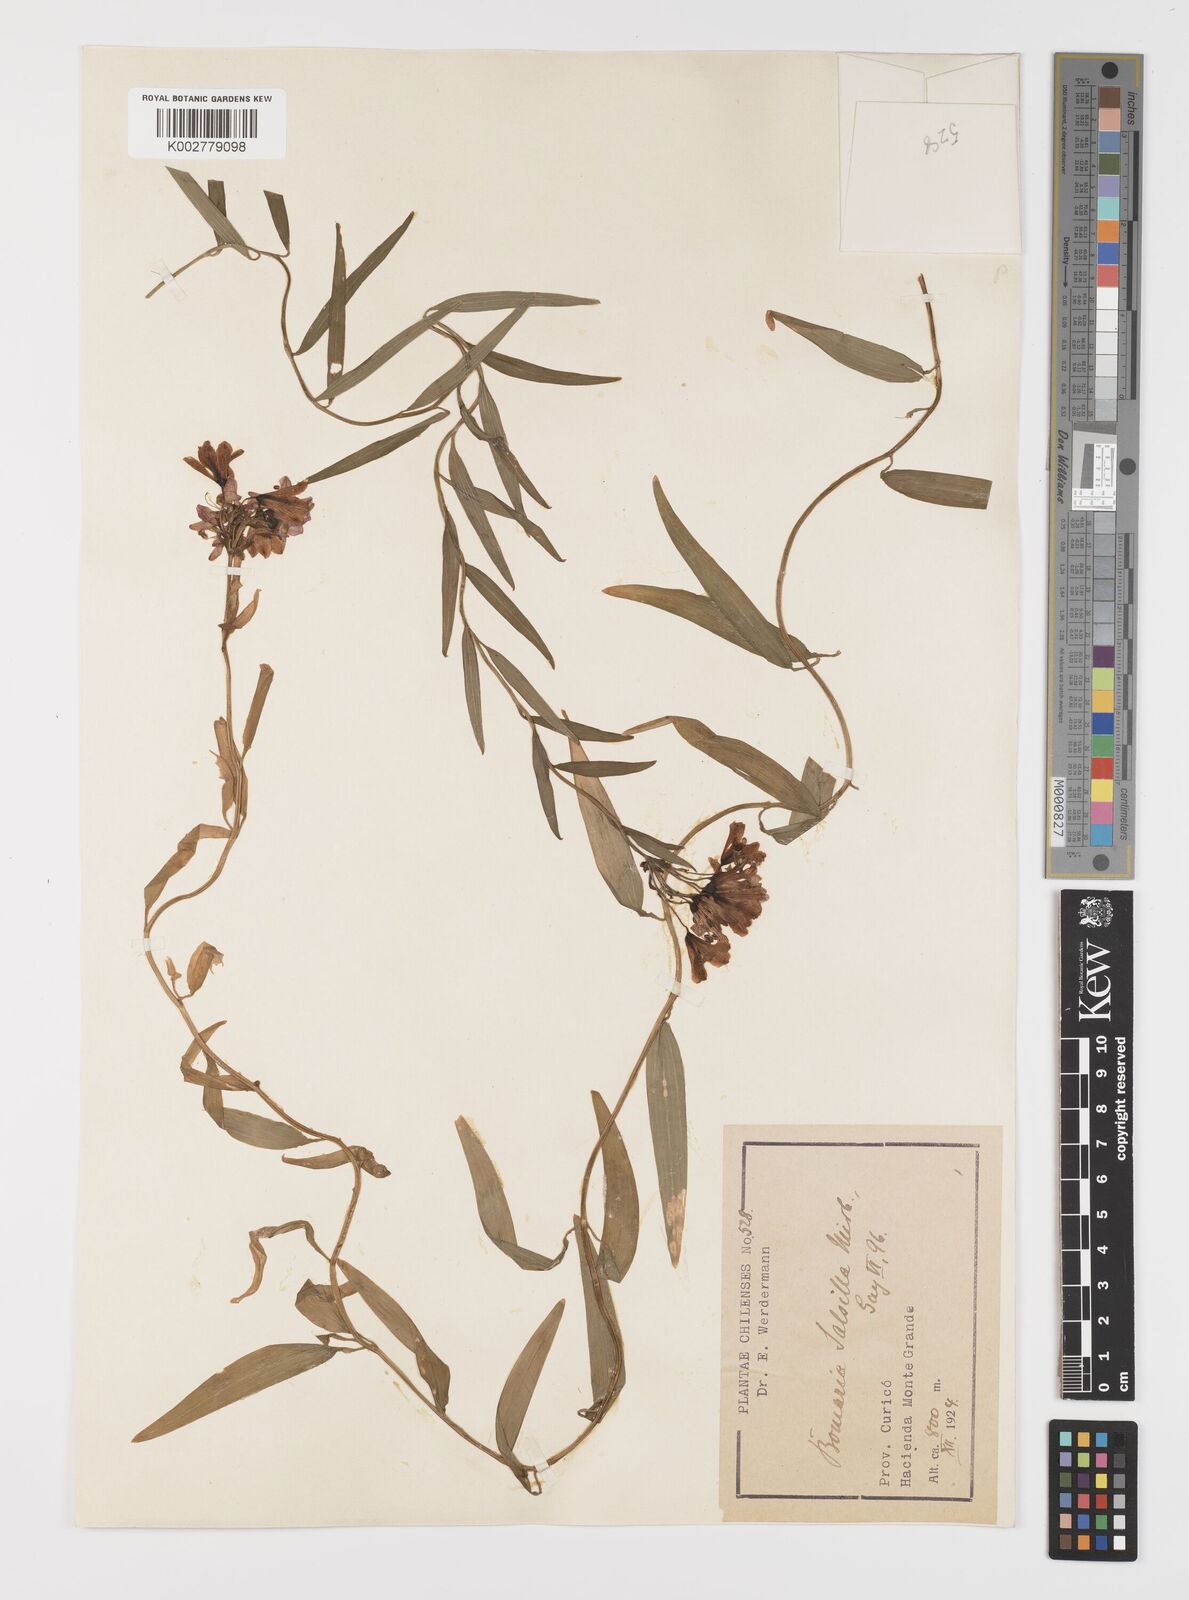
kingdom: Plantae
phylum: Tracheophyta
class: Liliopsida
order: Liliales
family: Alstroemeriaceae
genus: Bomarea
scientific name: Bomarea edulis
